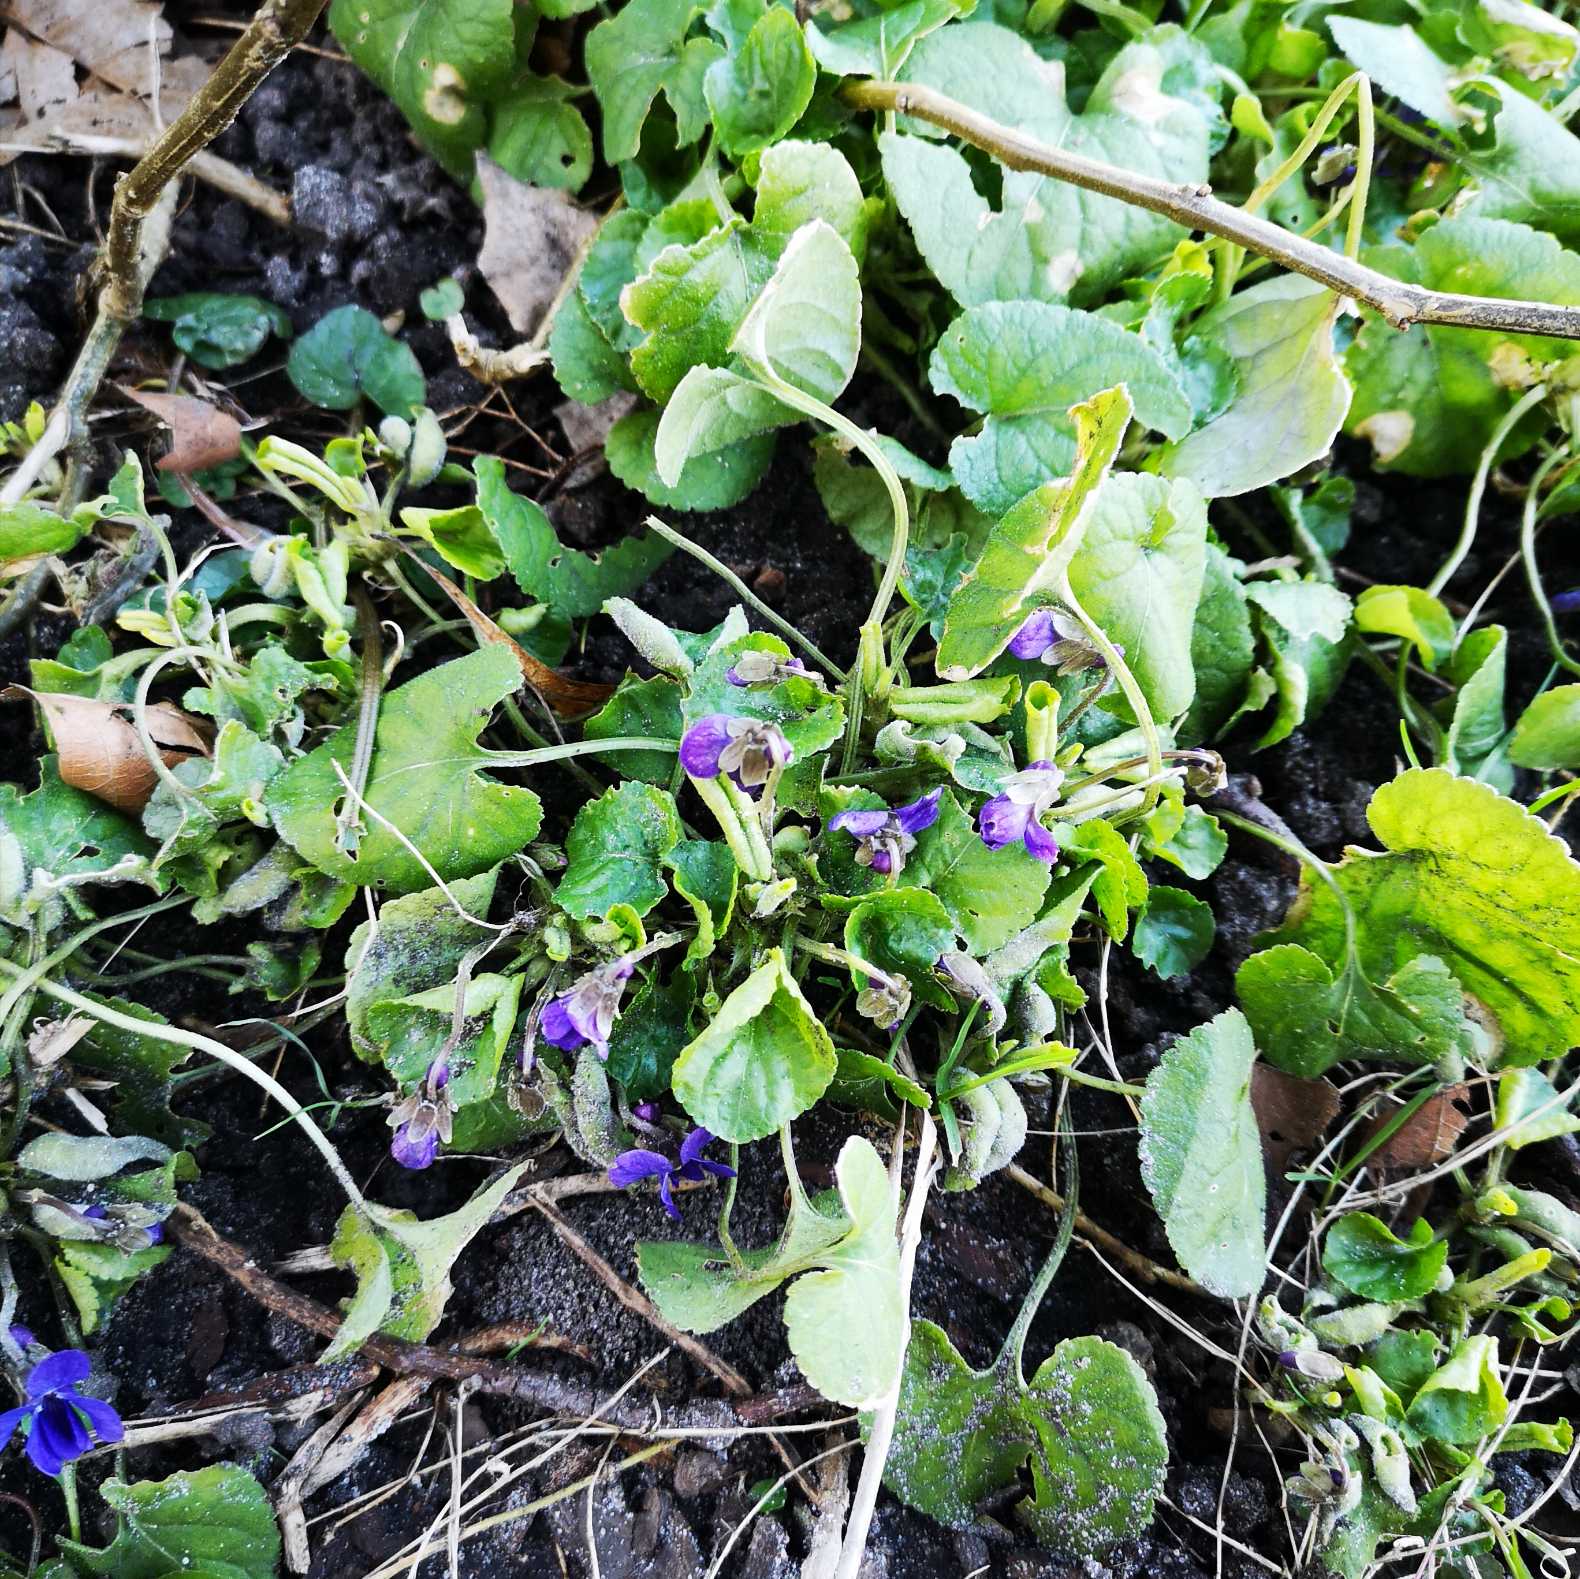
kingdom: Plantae
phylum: Tracheophyta
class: Magnoliopsida
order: Malpighiales
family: Violaceae
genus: Viola
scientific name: Viola odorata
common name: Marts-viol
